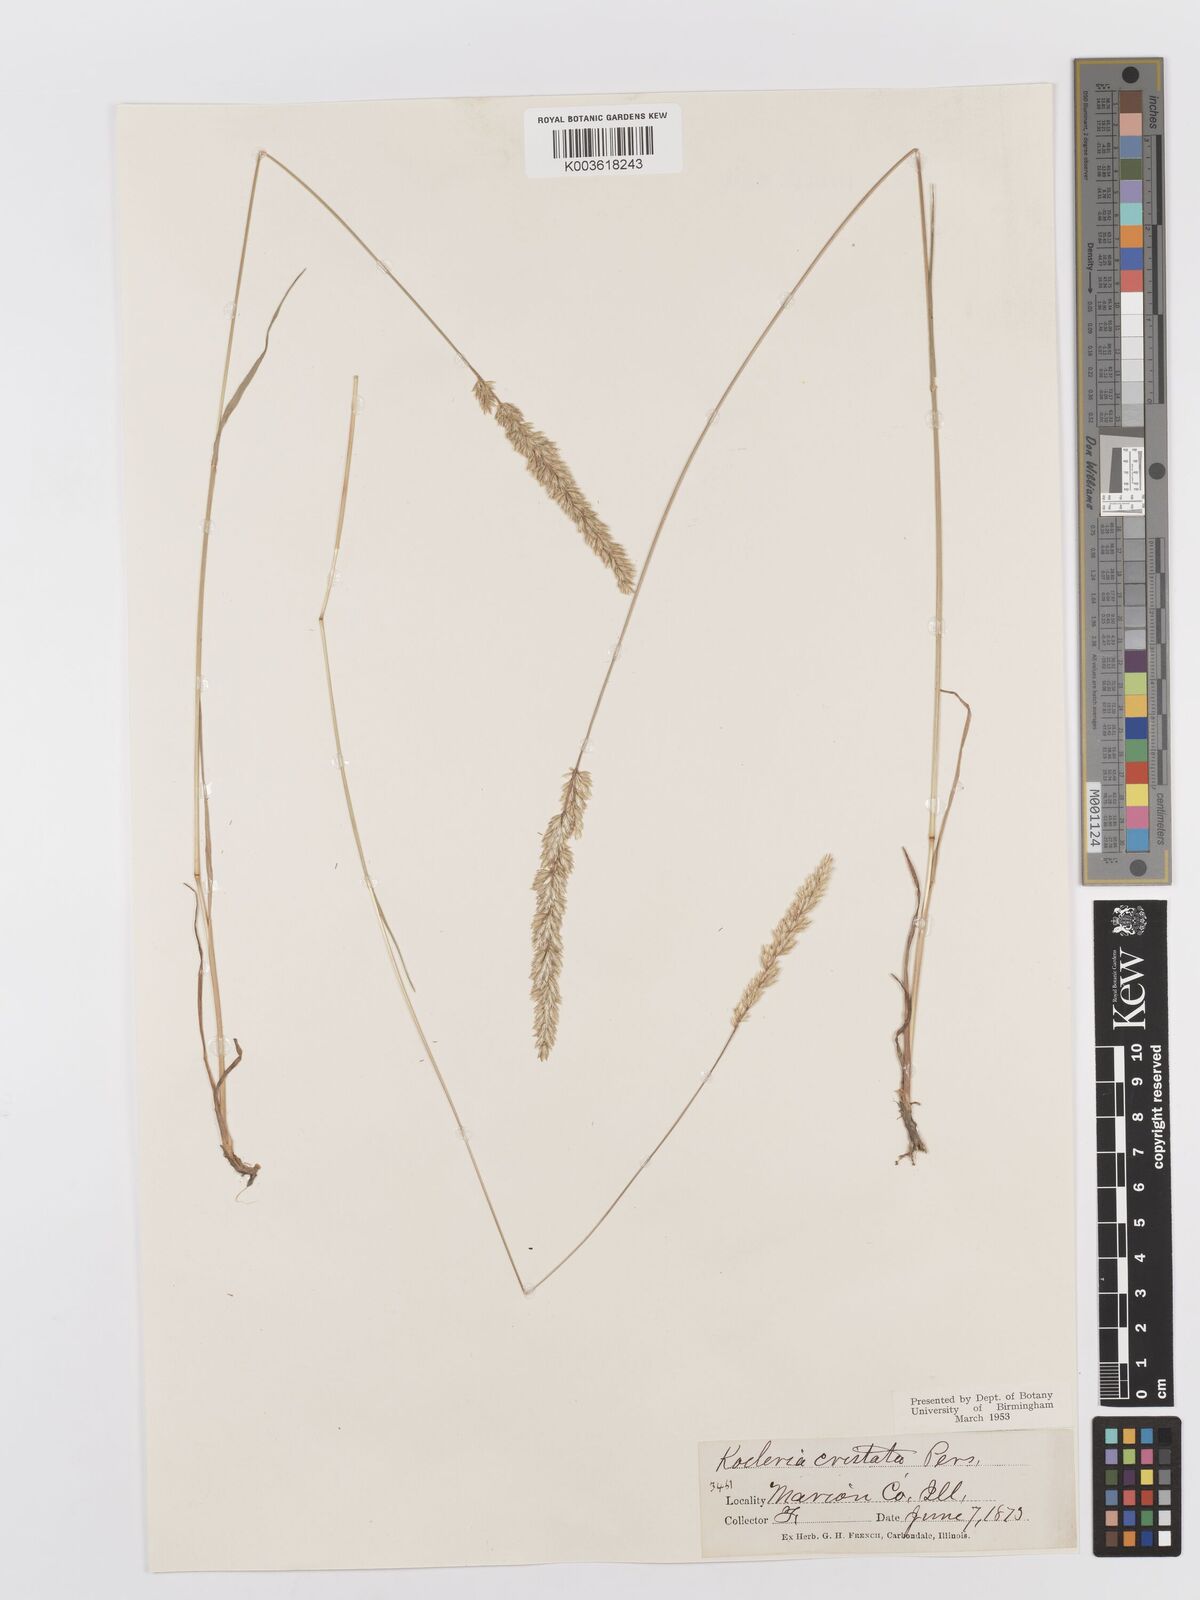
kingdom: Plantae
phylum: Tracheophyta
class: Liliopsida
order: Poales
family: Poaceae
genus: Koeleria
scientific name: Koeleria macrantha
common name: Crested hair-grass
